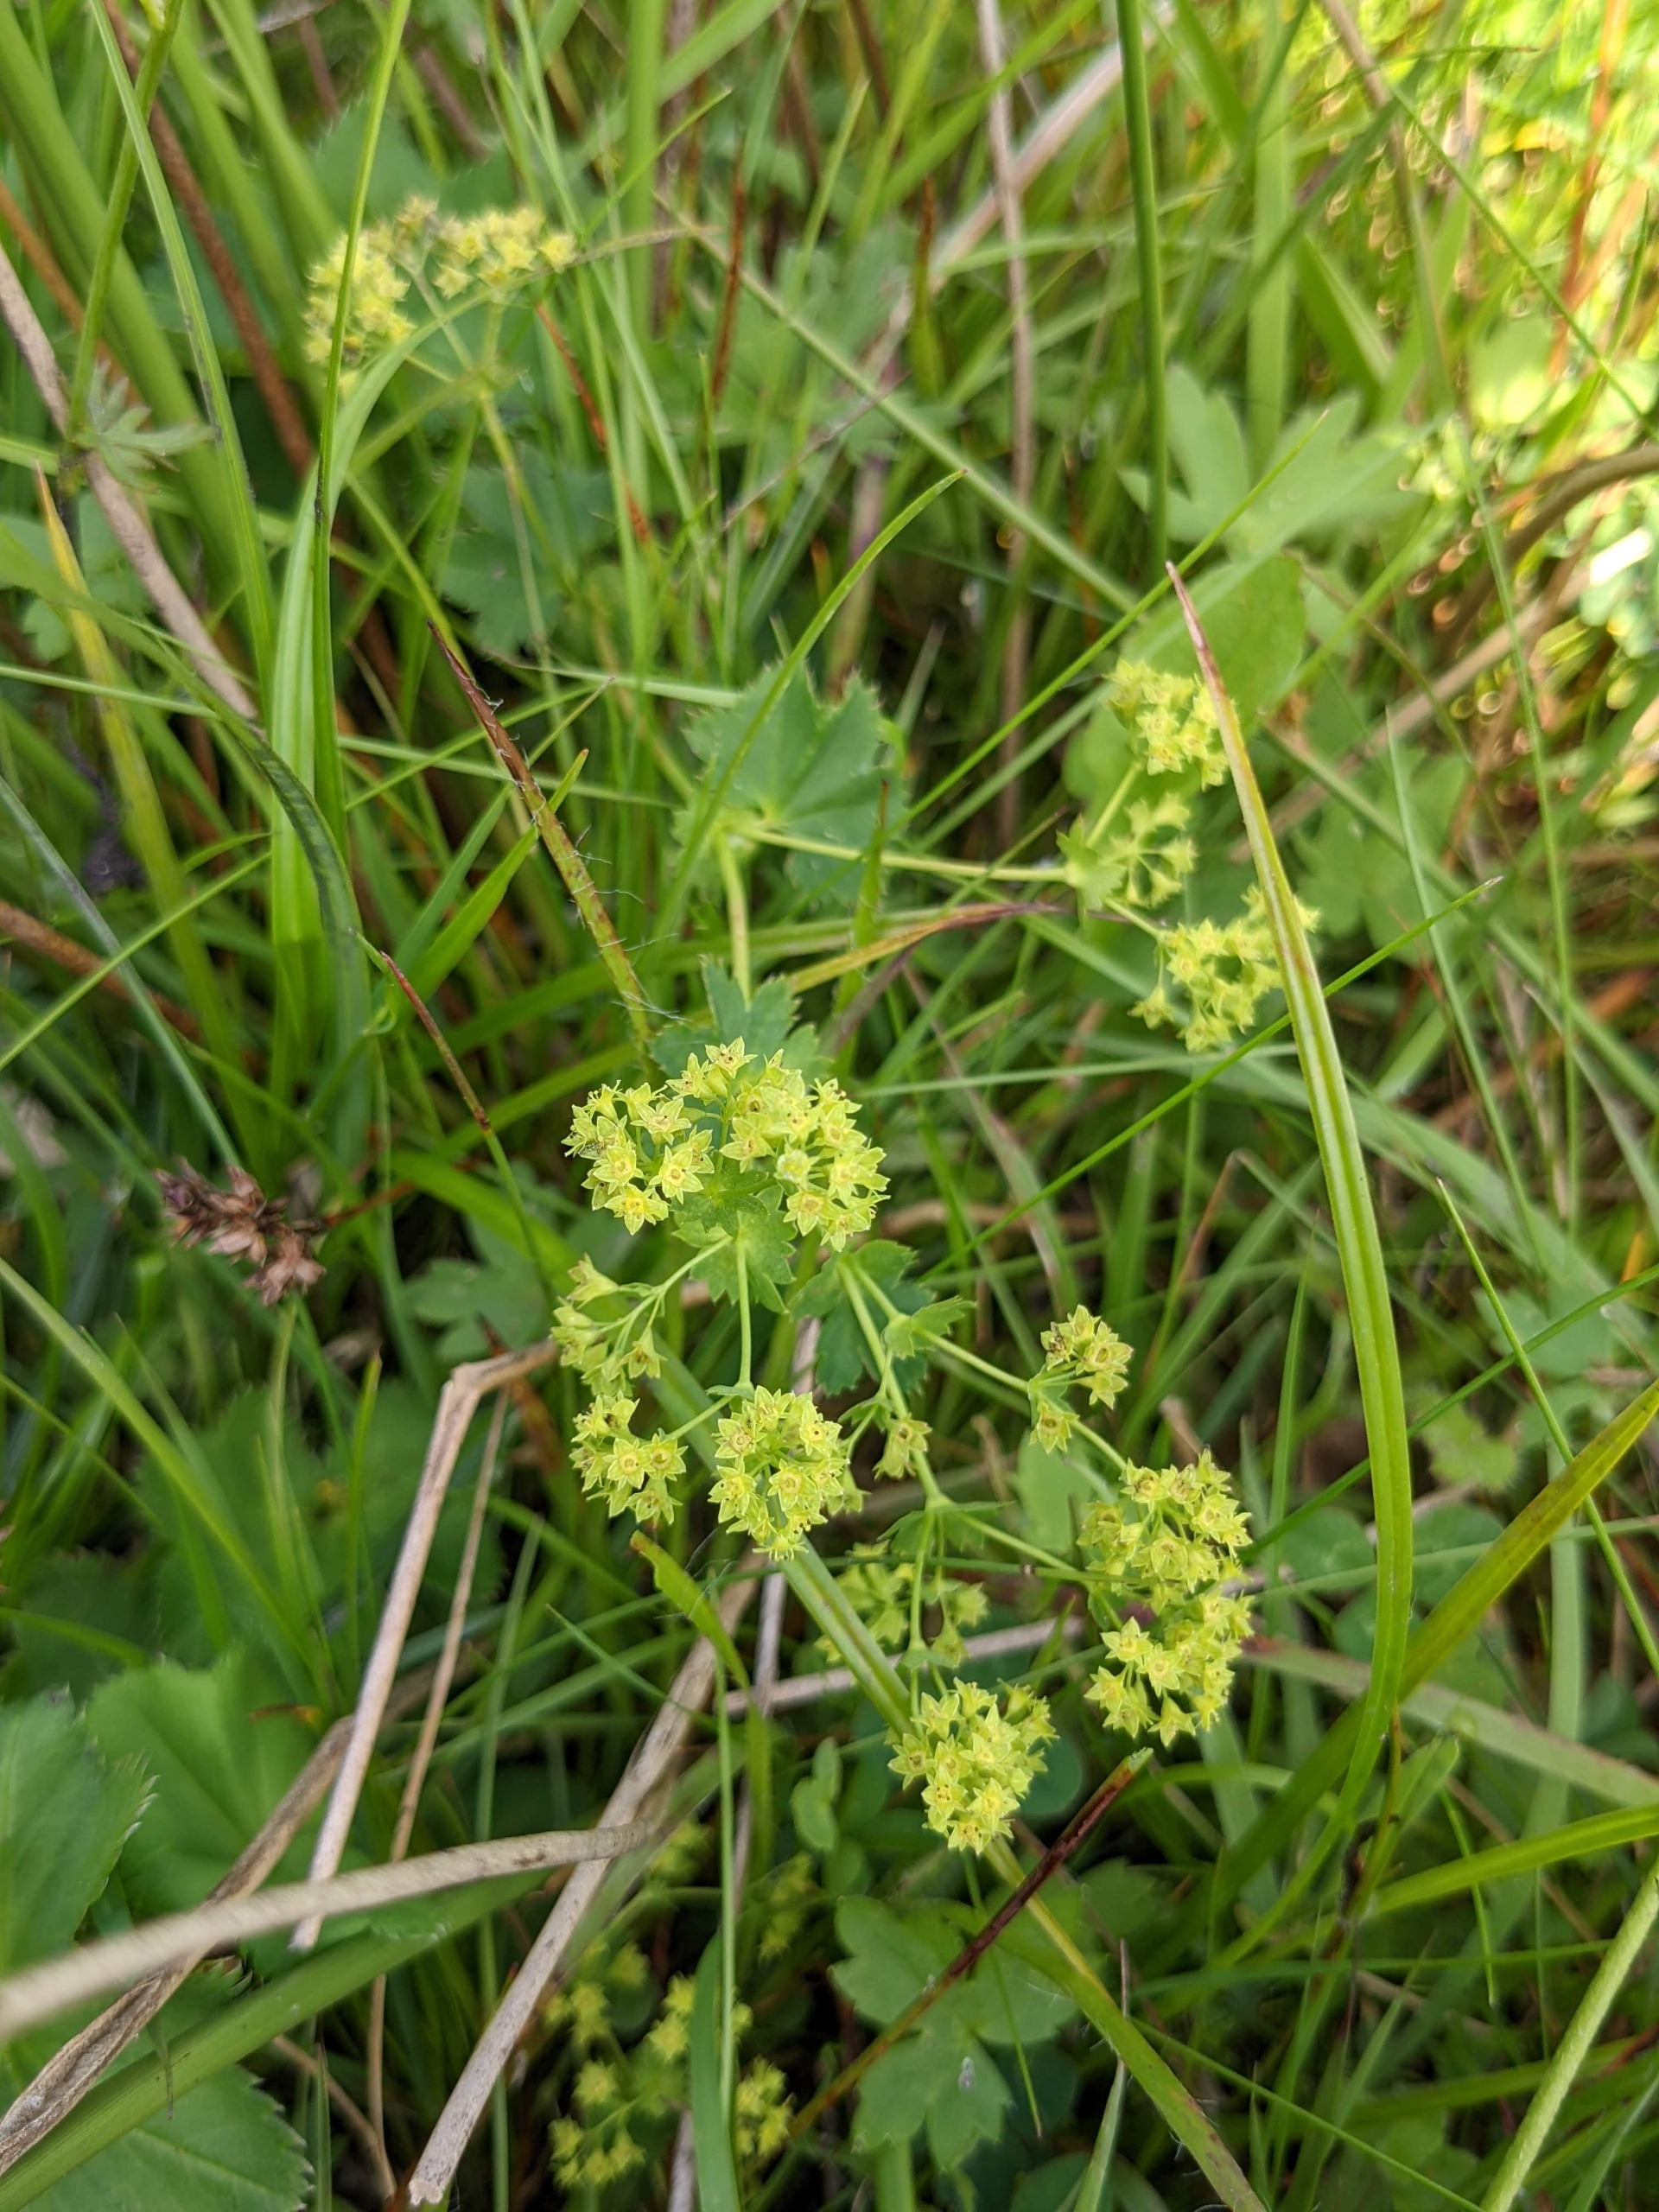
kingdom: Plantae
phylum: Tracheophyta
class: Magnoliopsida
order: Rosales
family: Rosaceae
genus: Alchemilla
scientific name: Alchemilla glabra
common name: Glat løvefod
